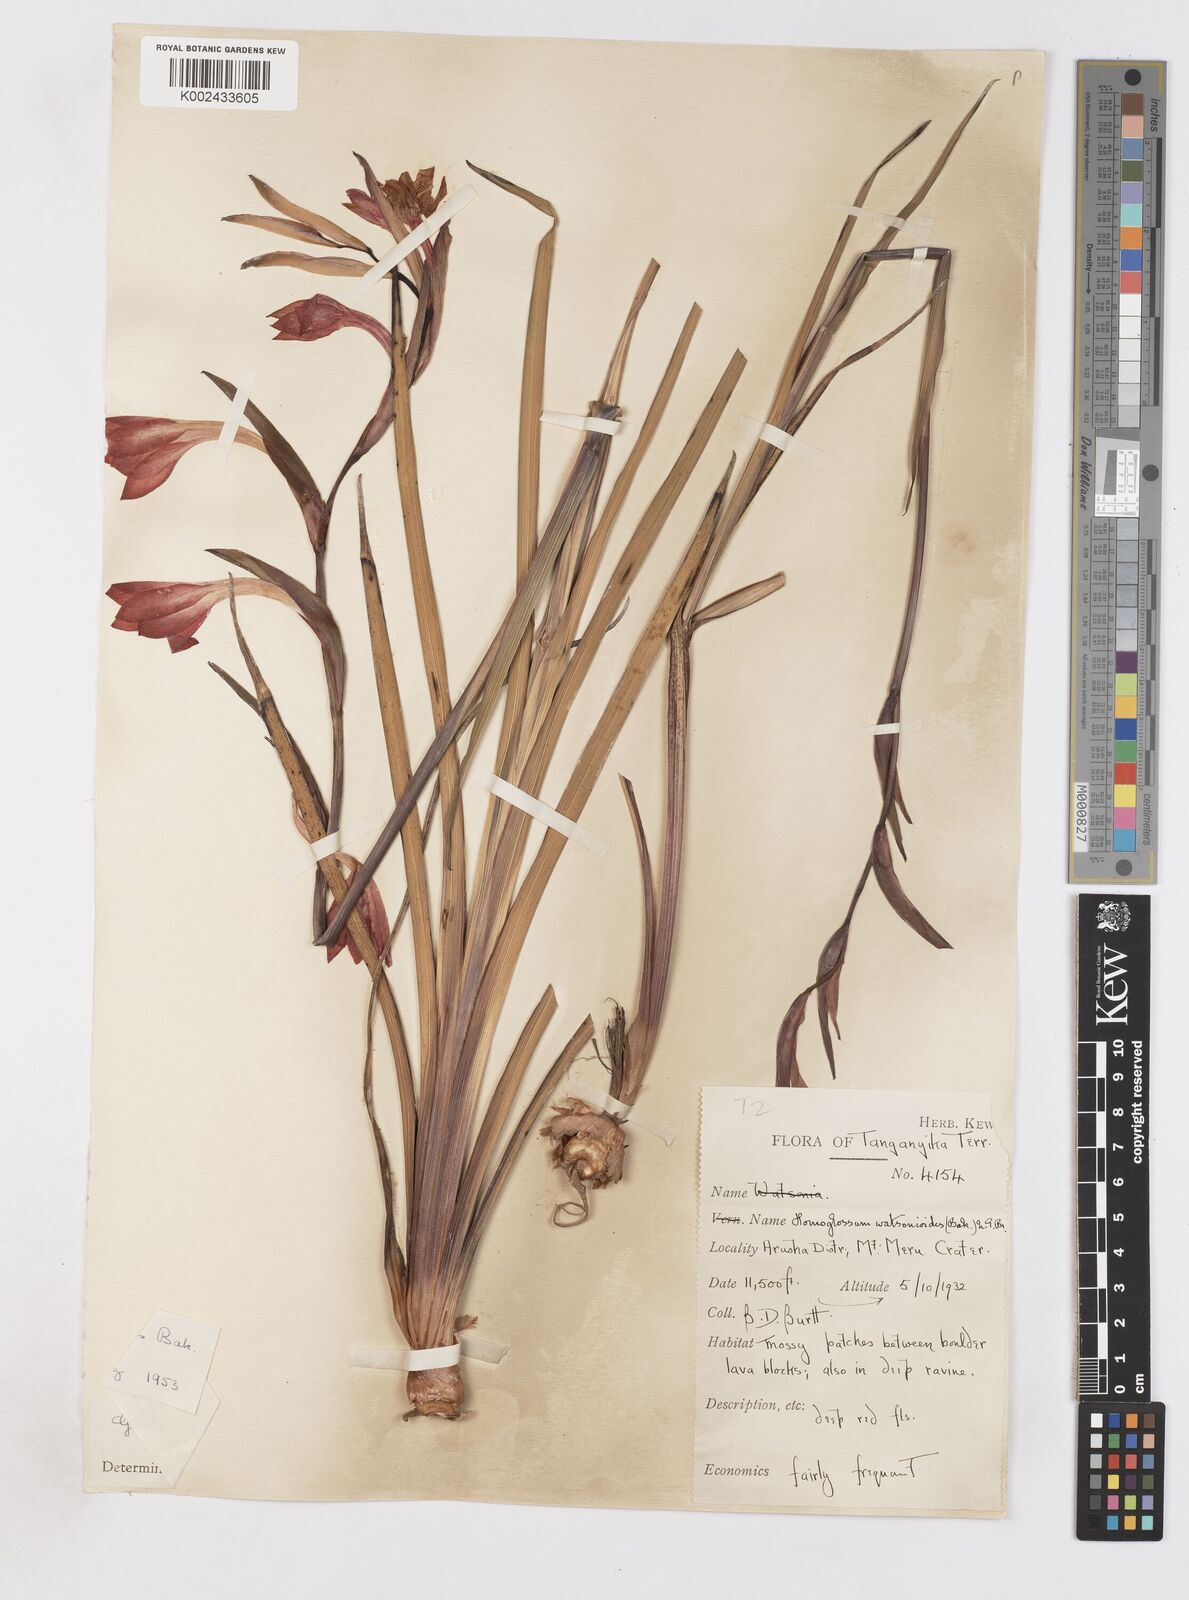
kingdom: Plantae
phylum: Tracheophyta
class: Liliopsida
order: Asparagales
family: Iridaceae
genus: Gladiolus
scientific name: Gladiolus watsonioides
